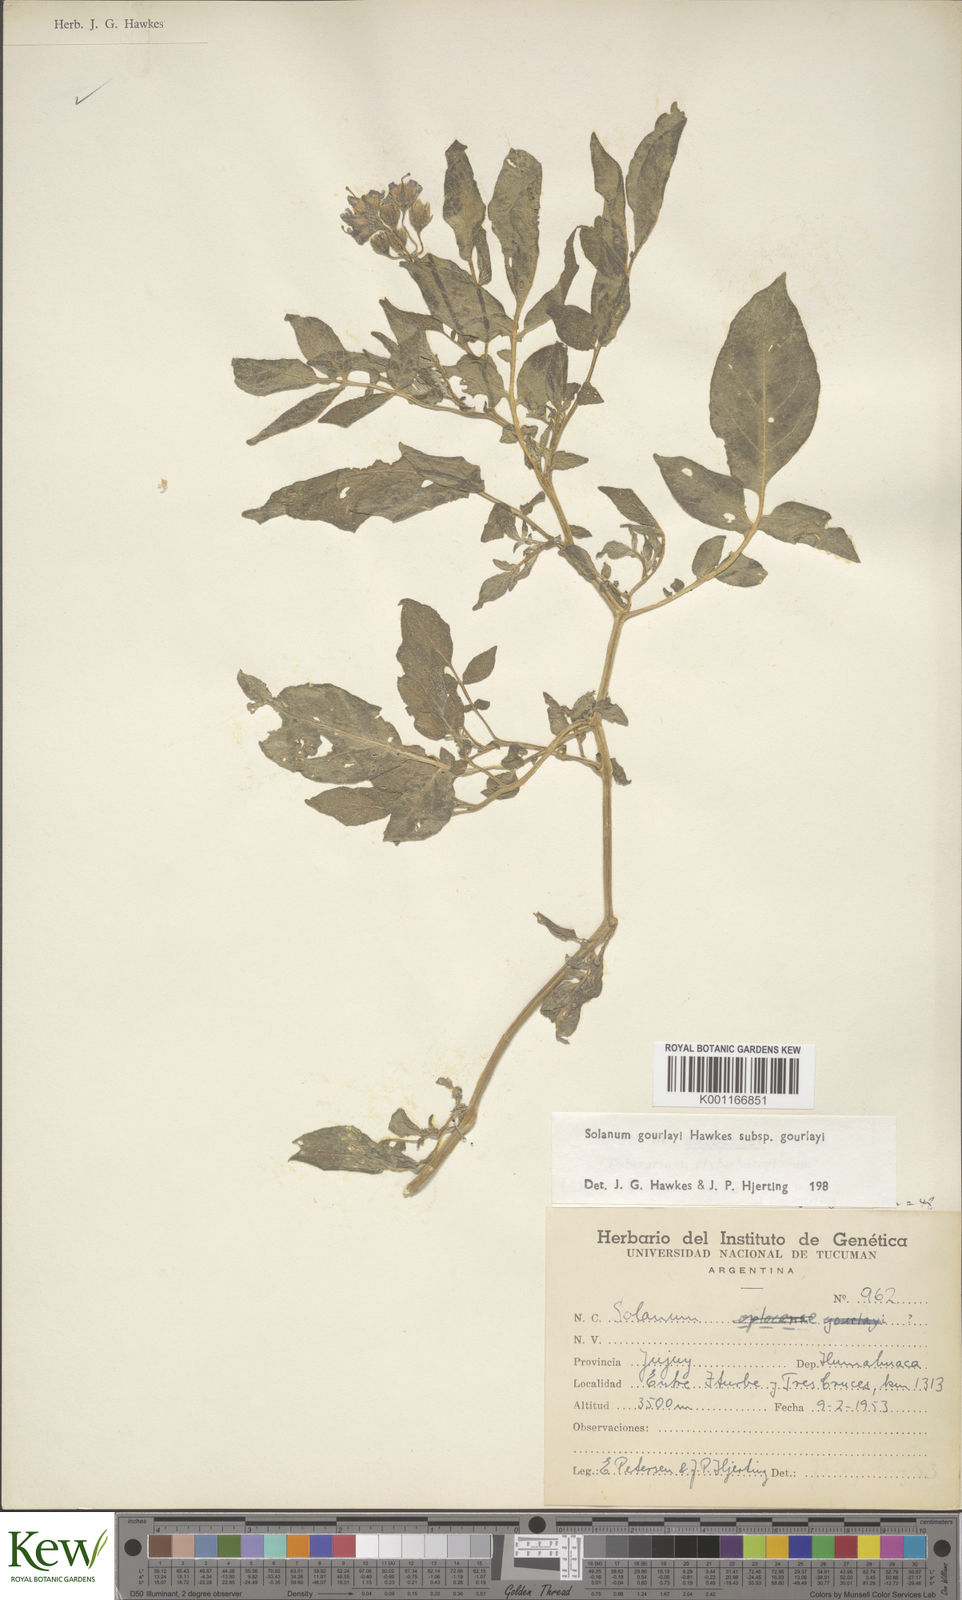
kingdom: Plantae
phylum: Tracheophyta
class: Magnoliopsida
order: Solanales
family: Solanaceae
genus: Solanum
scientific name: Solanum brevicaule
